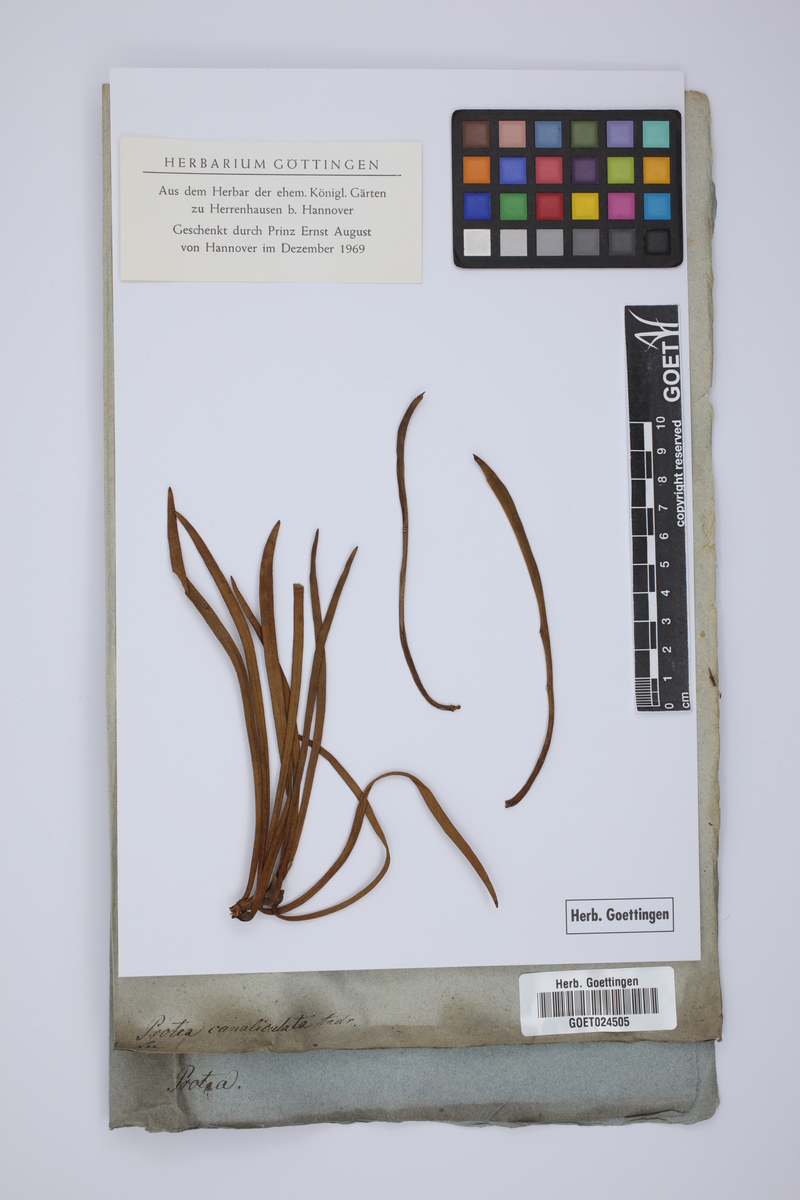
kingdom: Plantae
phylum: Tracheophyta
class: Magnoliopsida
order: Proteales
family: Proteaceae
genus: Protea
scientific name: Protea canaliculata
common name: Groove-leaf sugarbush
